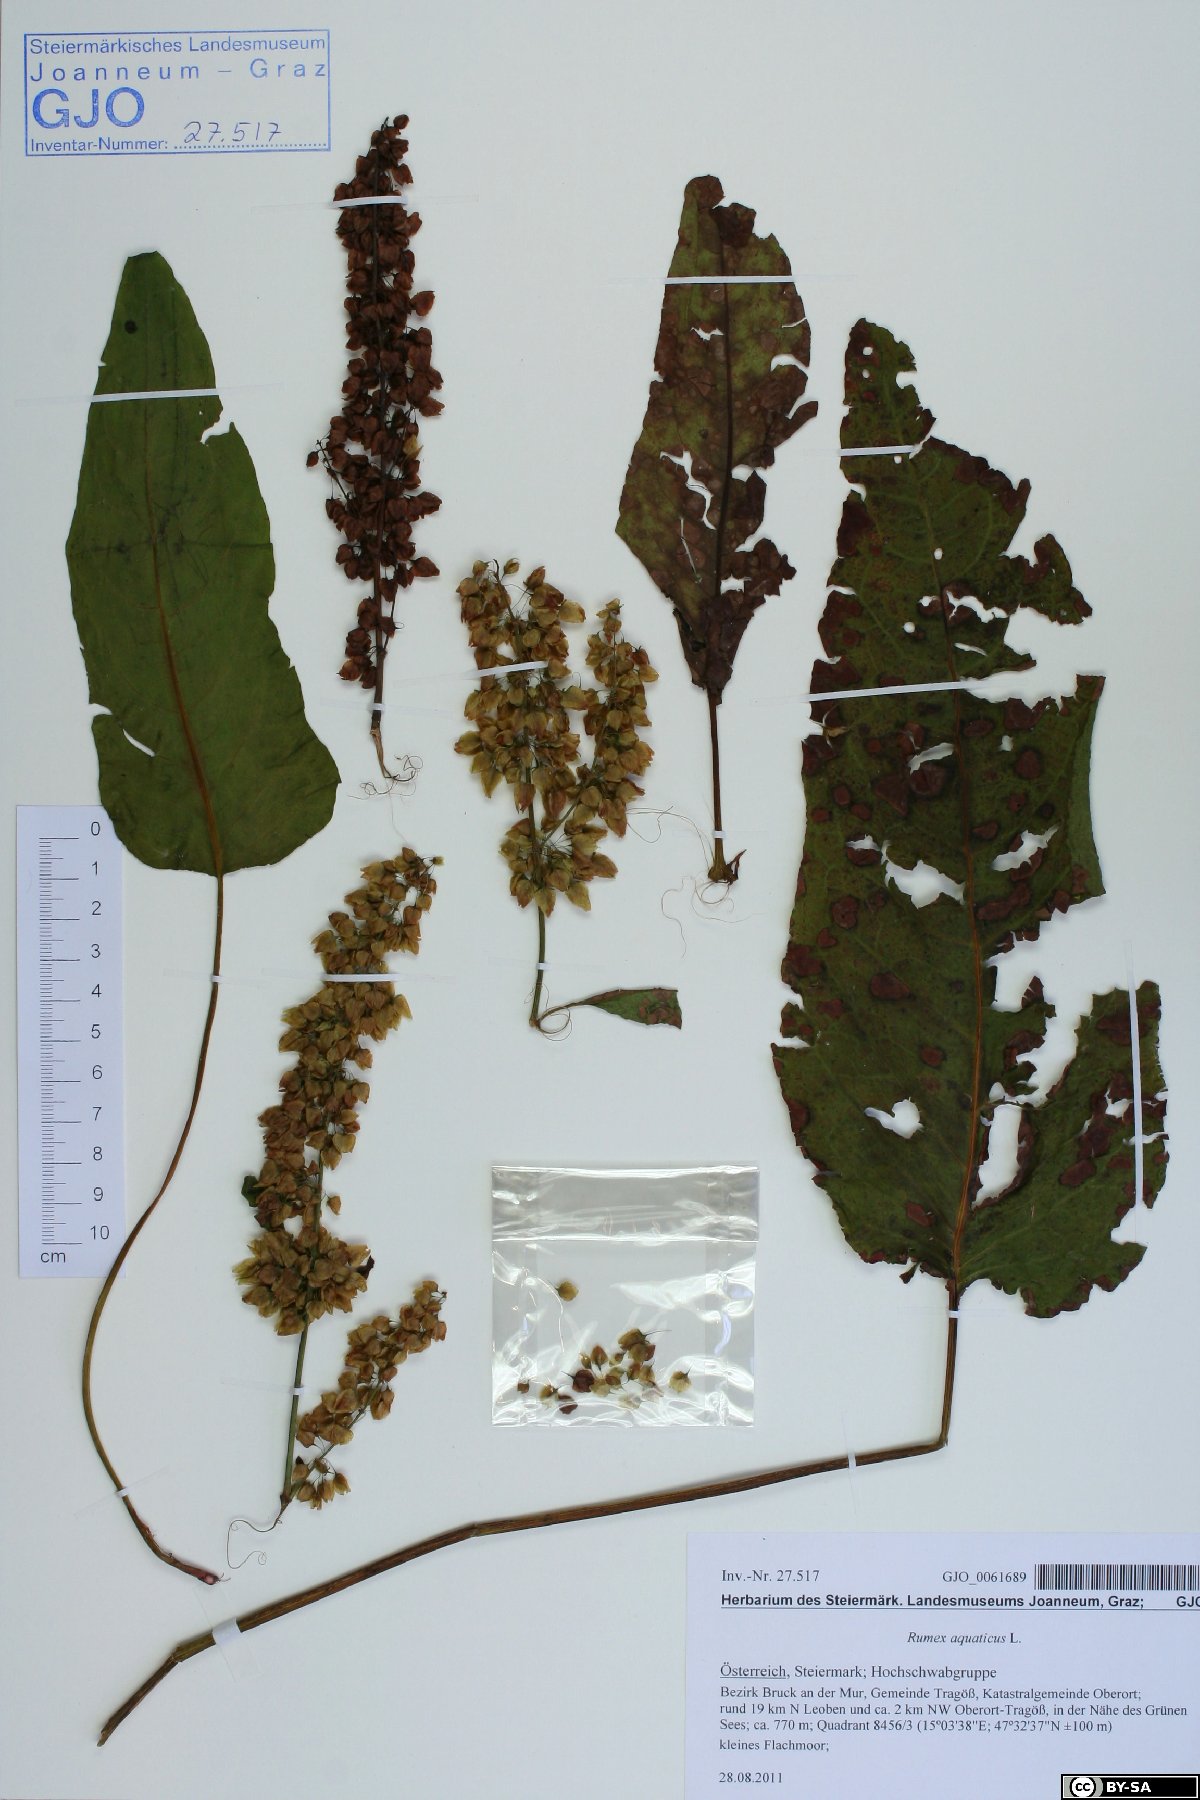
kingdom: Plantae
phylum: Tracheophyta
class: Magnoliopsida
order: Caryophyllales
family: Polygonaceae
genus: Rumex
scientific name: Rumex aquaticus
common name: Scottish dock
